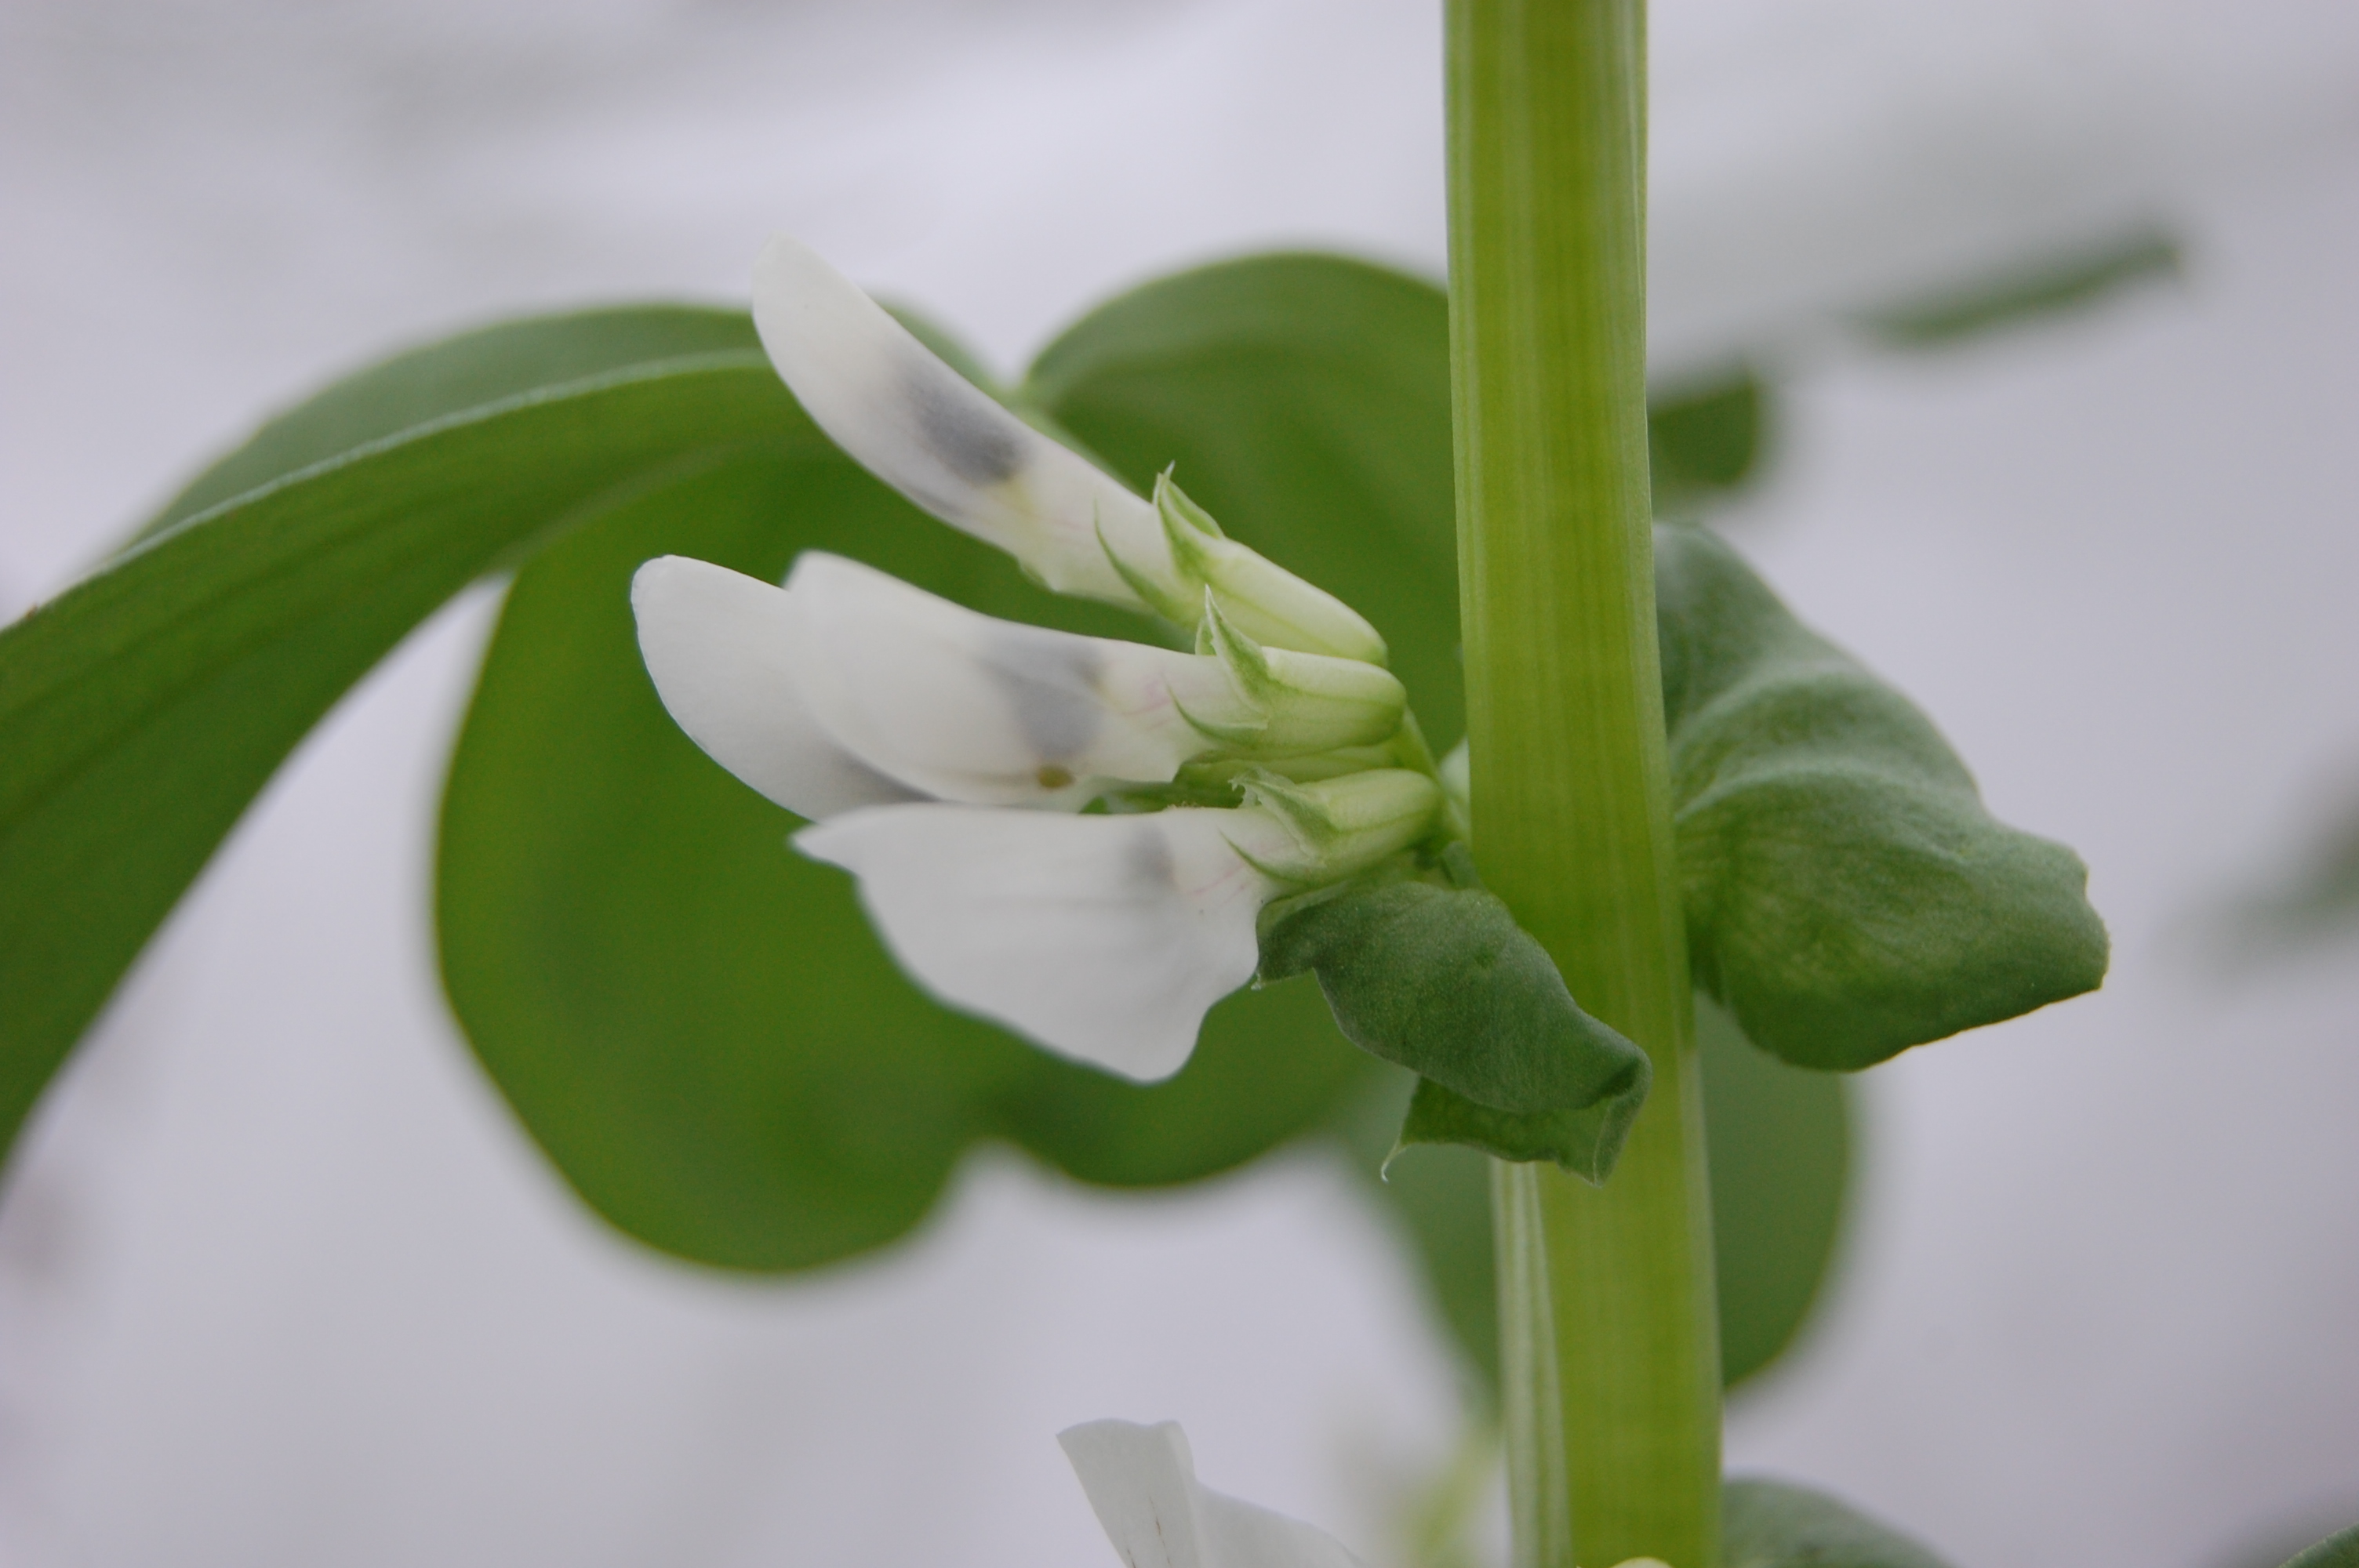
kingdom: Plantae
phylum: Tracheophyta
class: Magnoliopsida
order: Fabales
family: Fabaceae
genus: Vicia
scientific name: Vicia faba
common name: Broad bean
